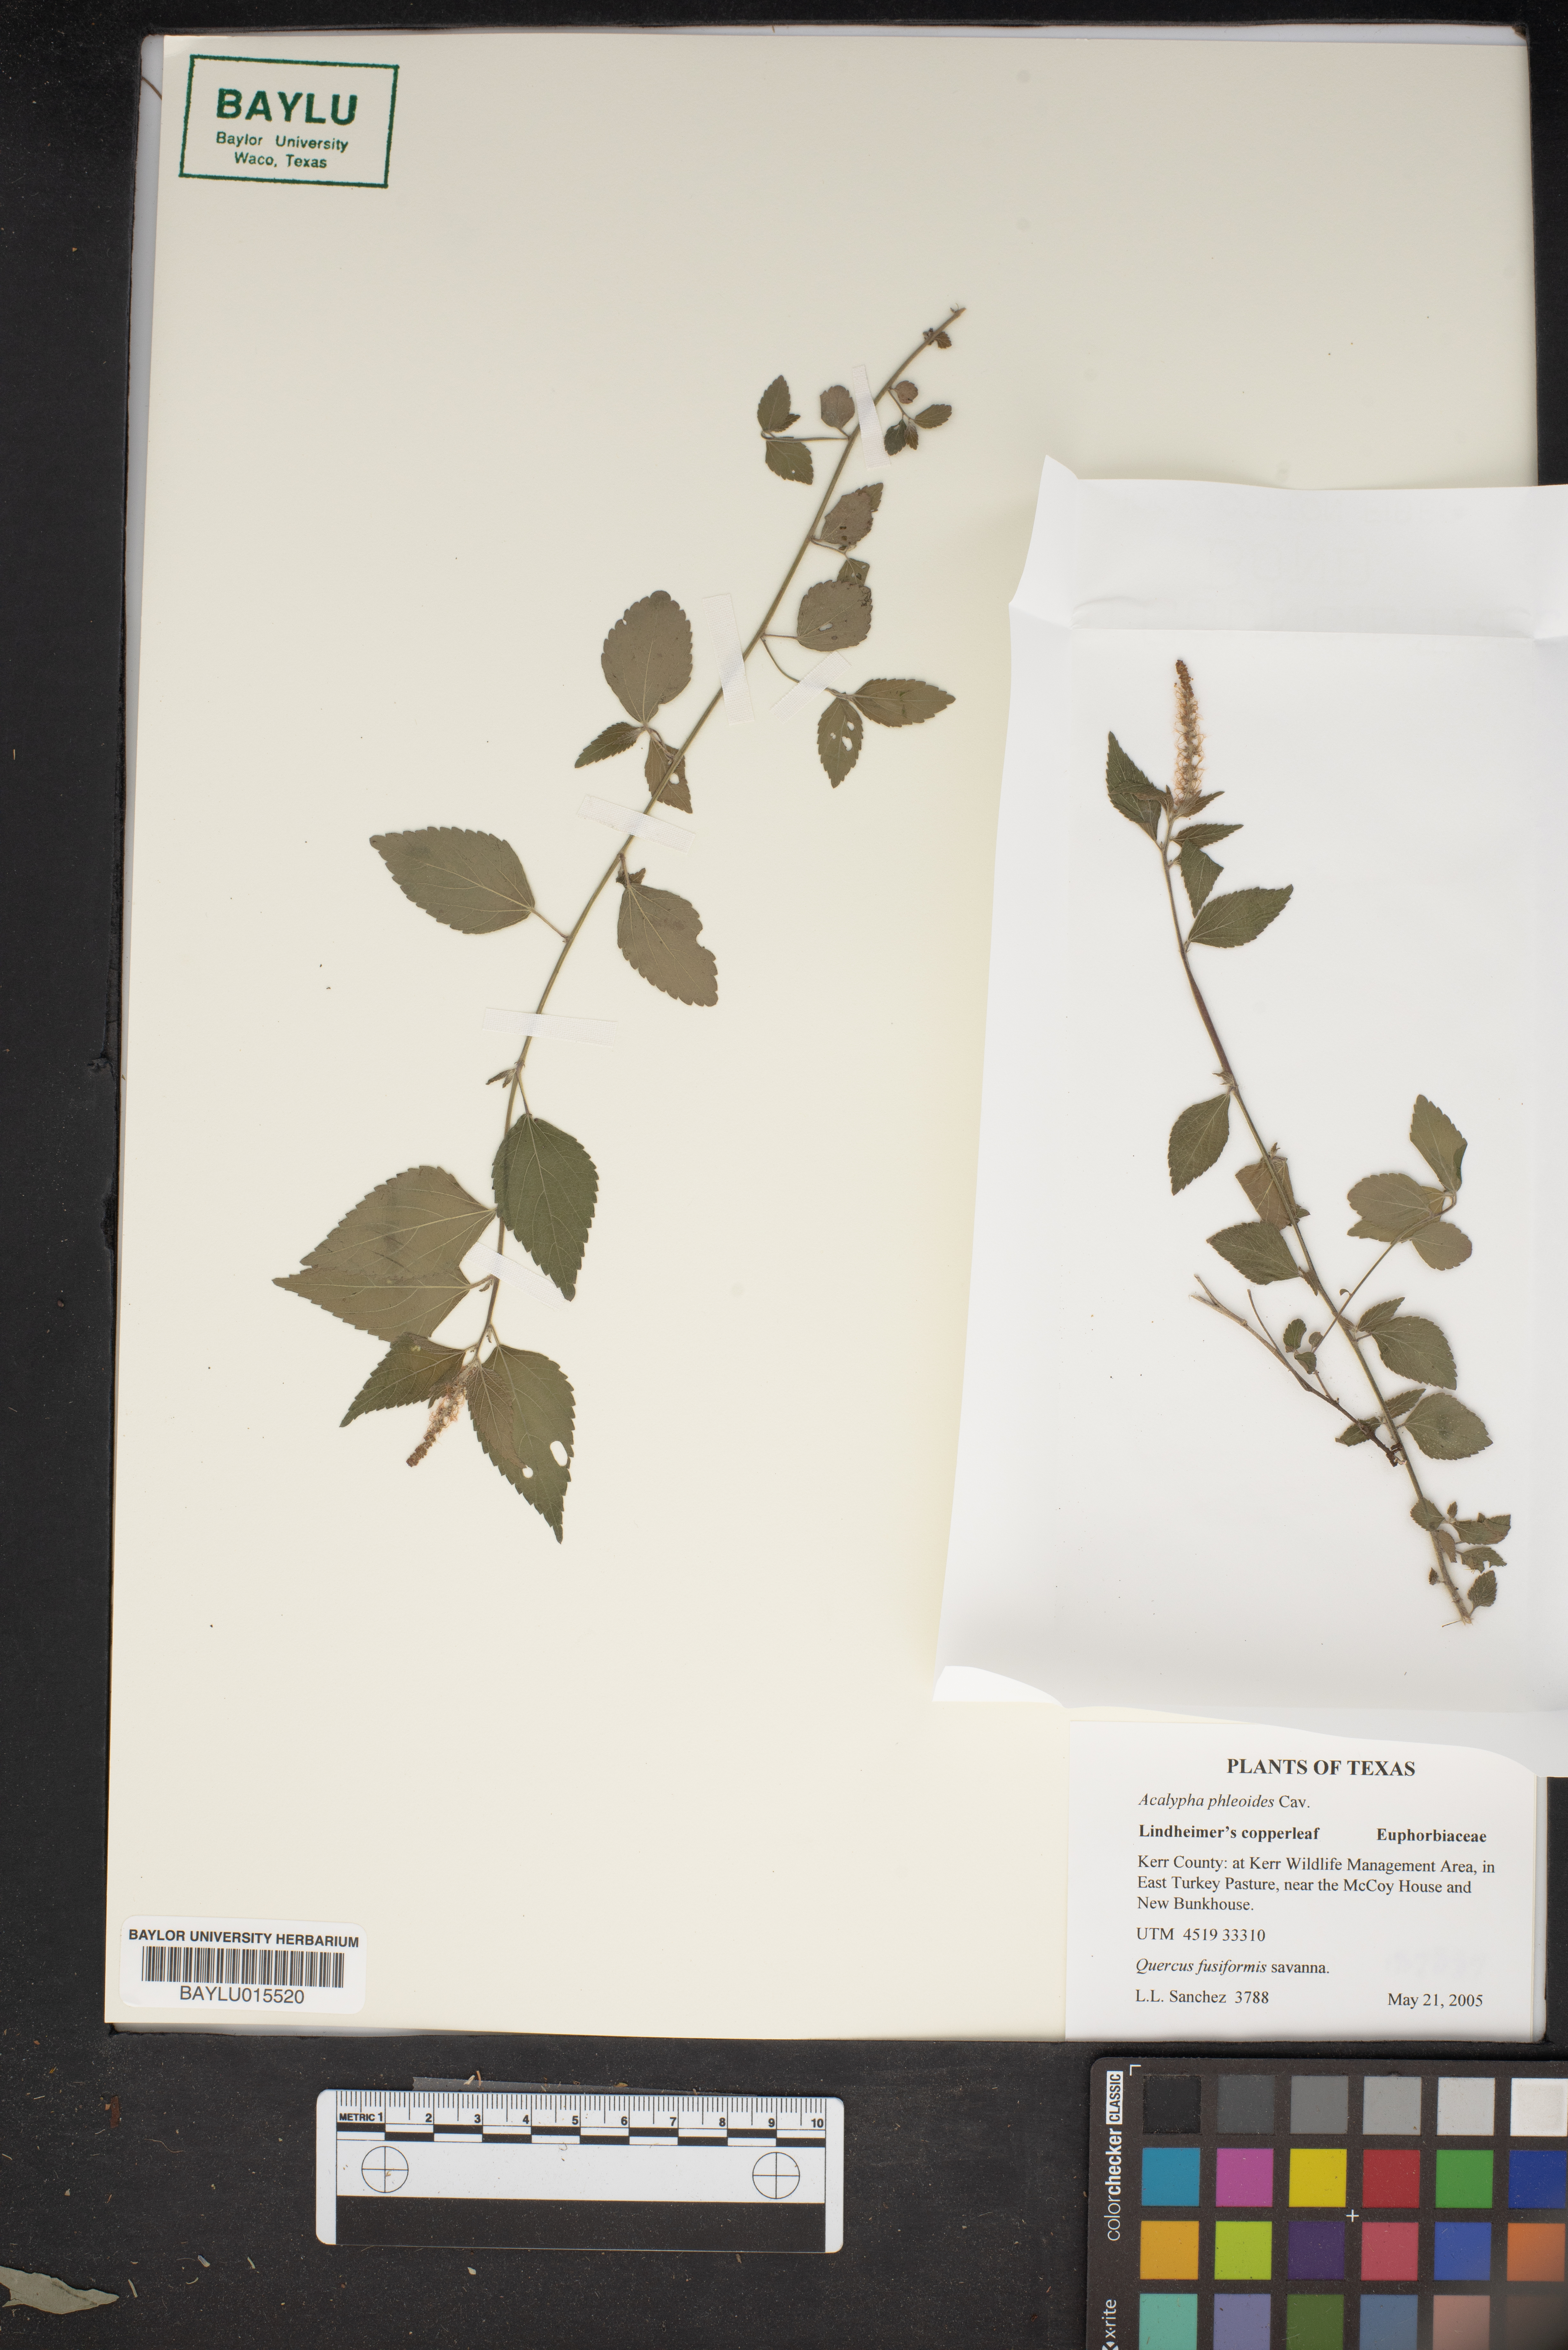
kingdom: Plantae
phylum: Tracheophyta
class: Magnoliopsida
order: Malpighiales
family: Euphorbiaceae
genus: Acalypha
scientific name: Acalypha phleoides
